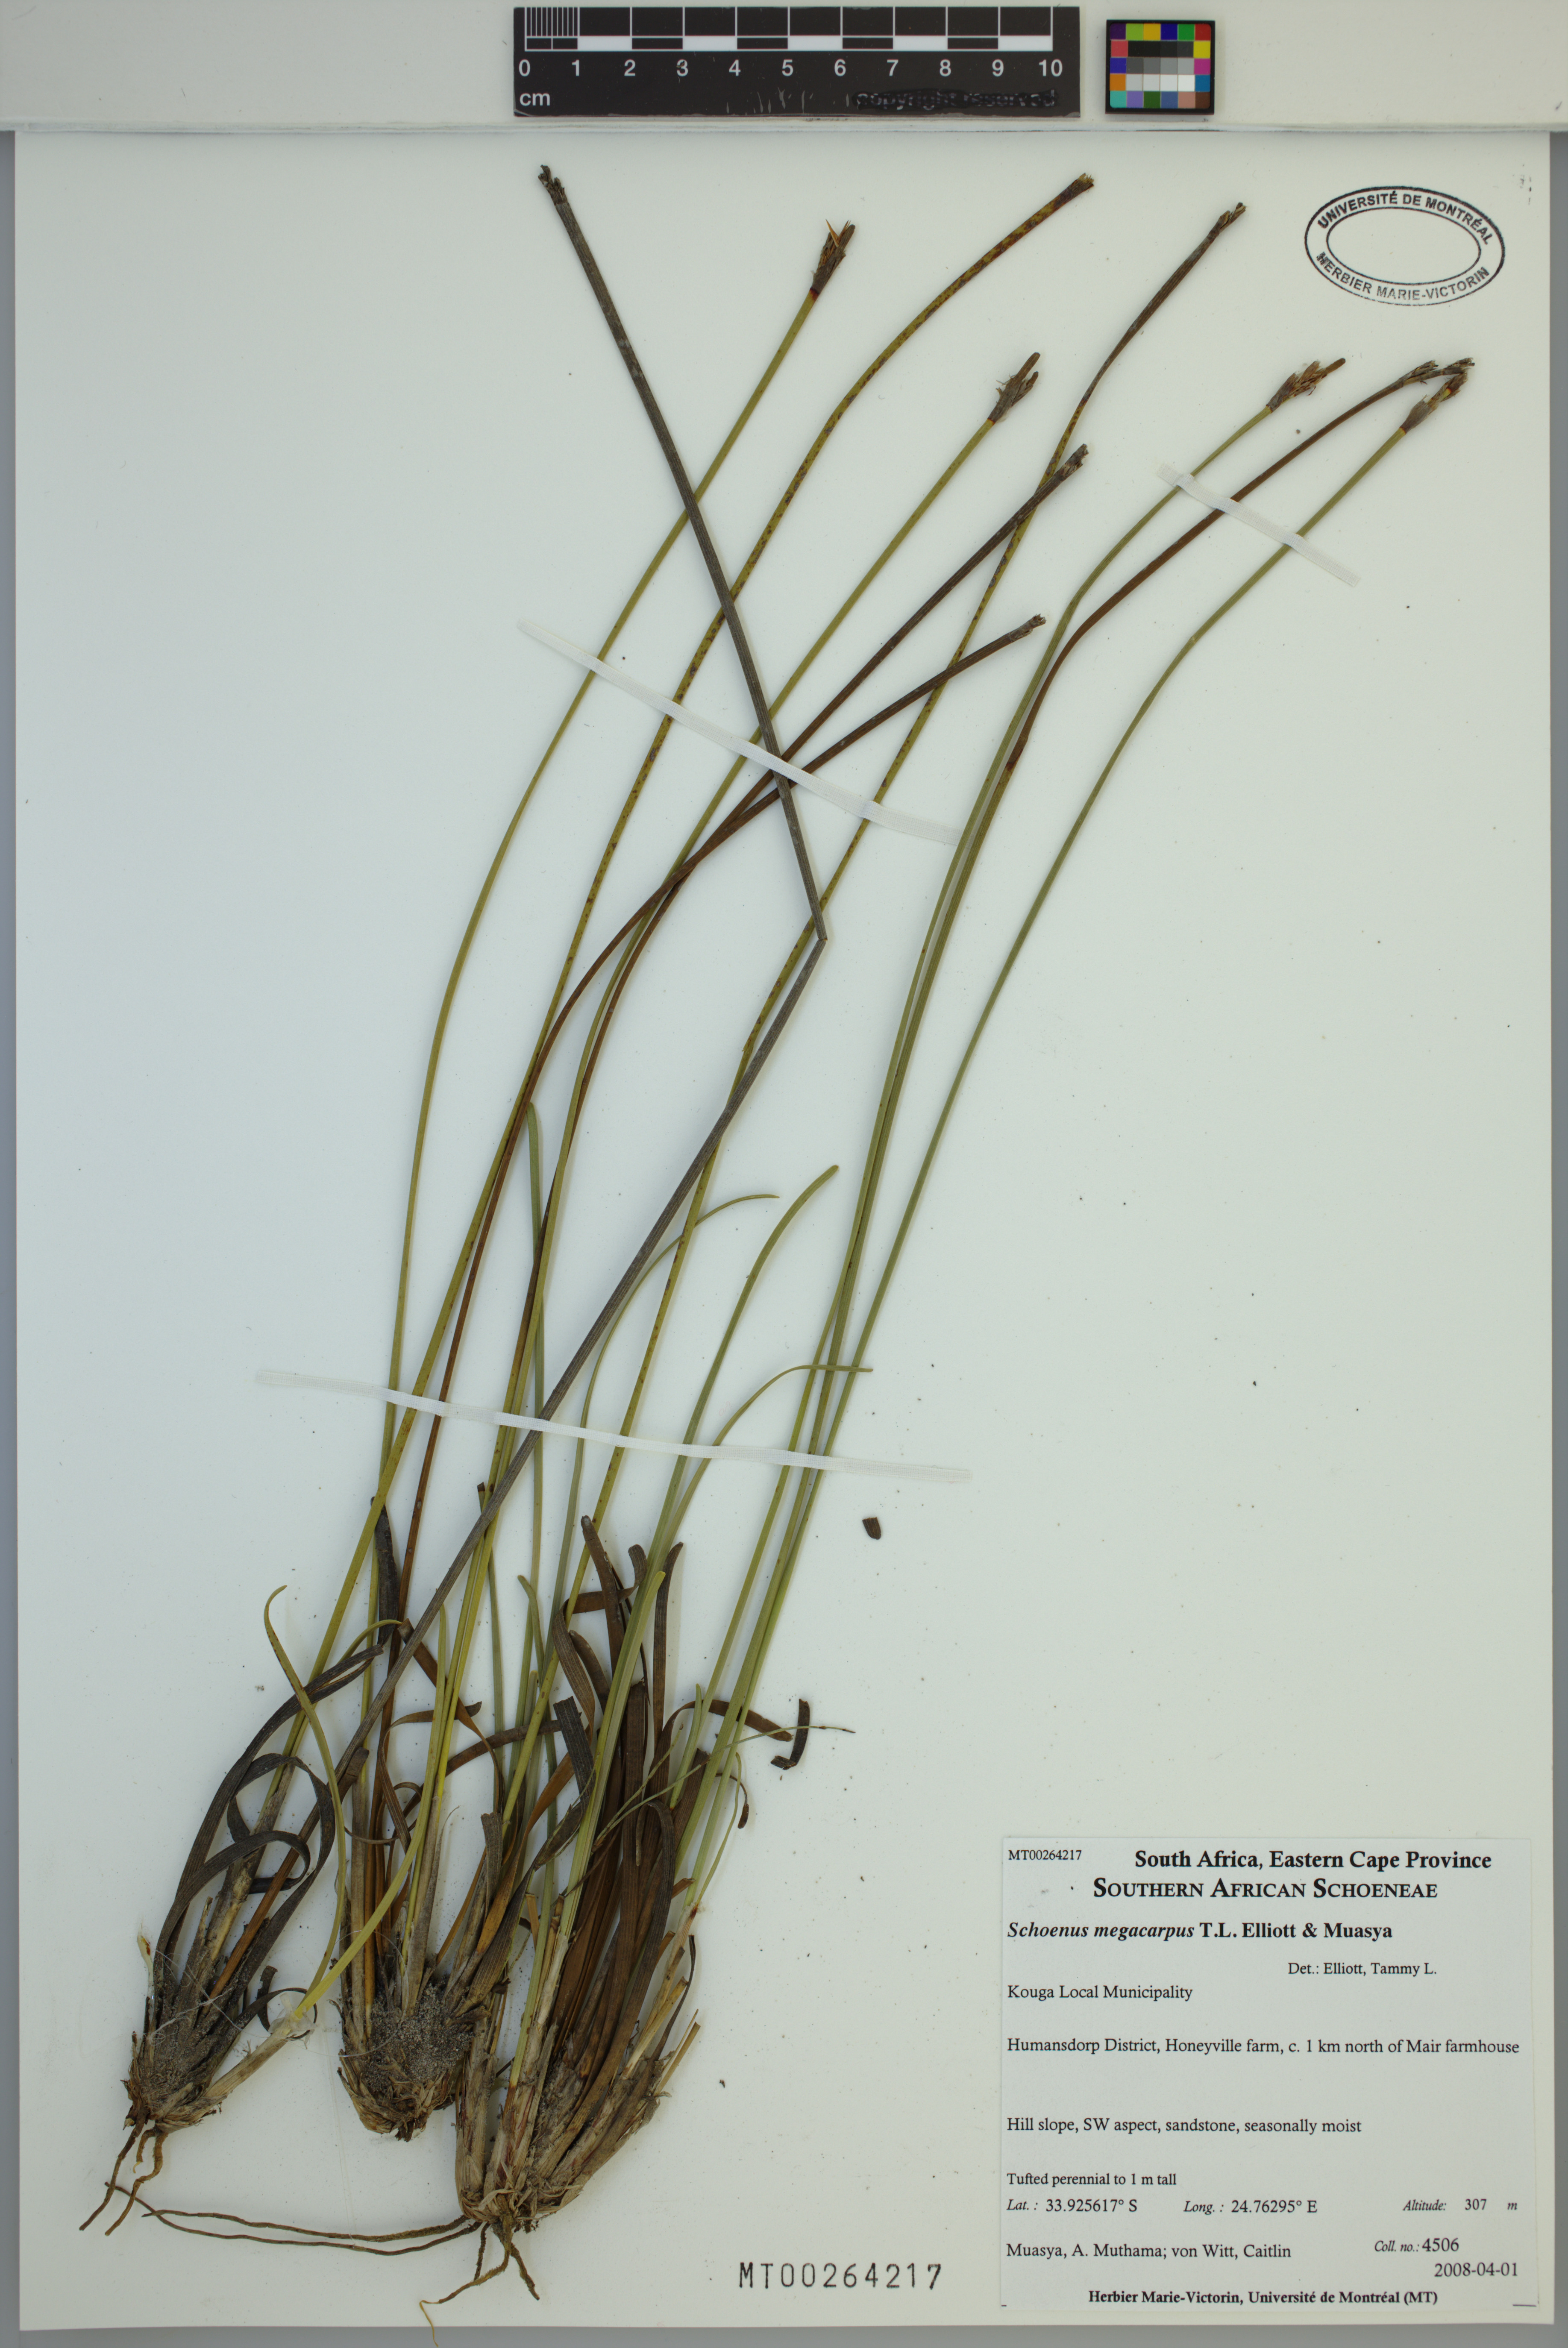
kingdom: Plantae
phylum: Tracheophyta
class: Liliopsida
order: Poales
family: Cyperaceae
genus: Schoenus
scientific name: Schoenus megacarpus
